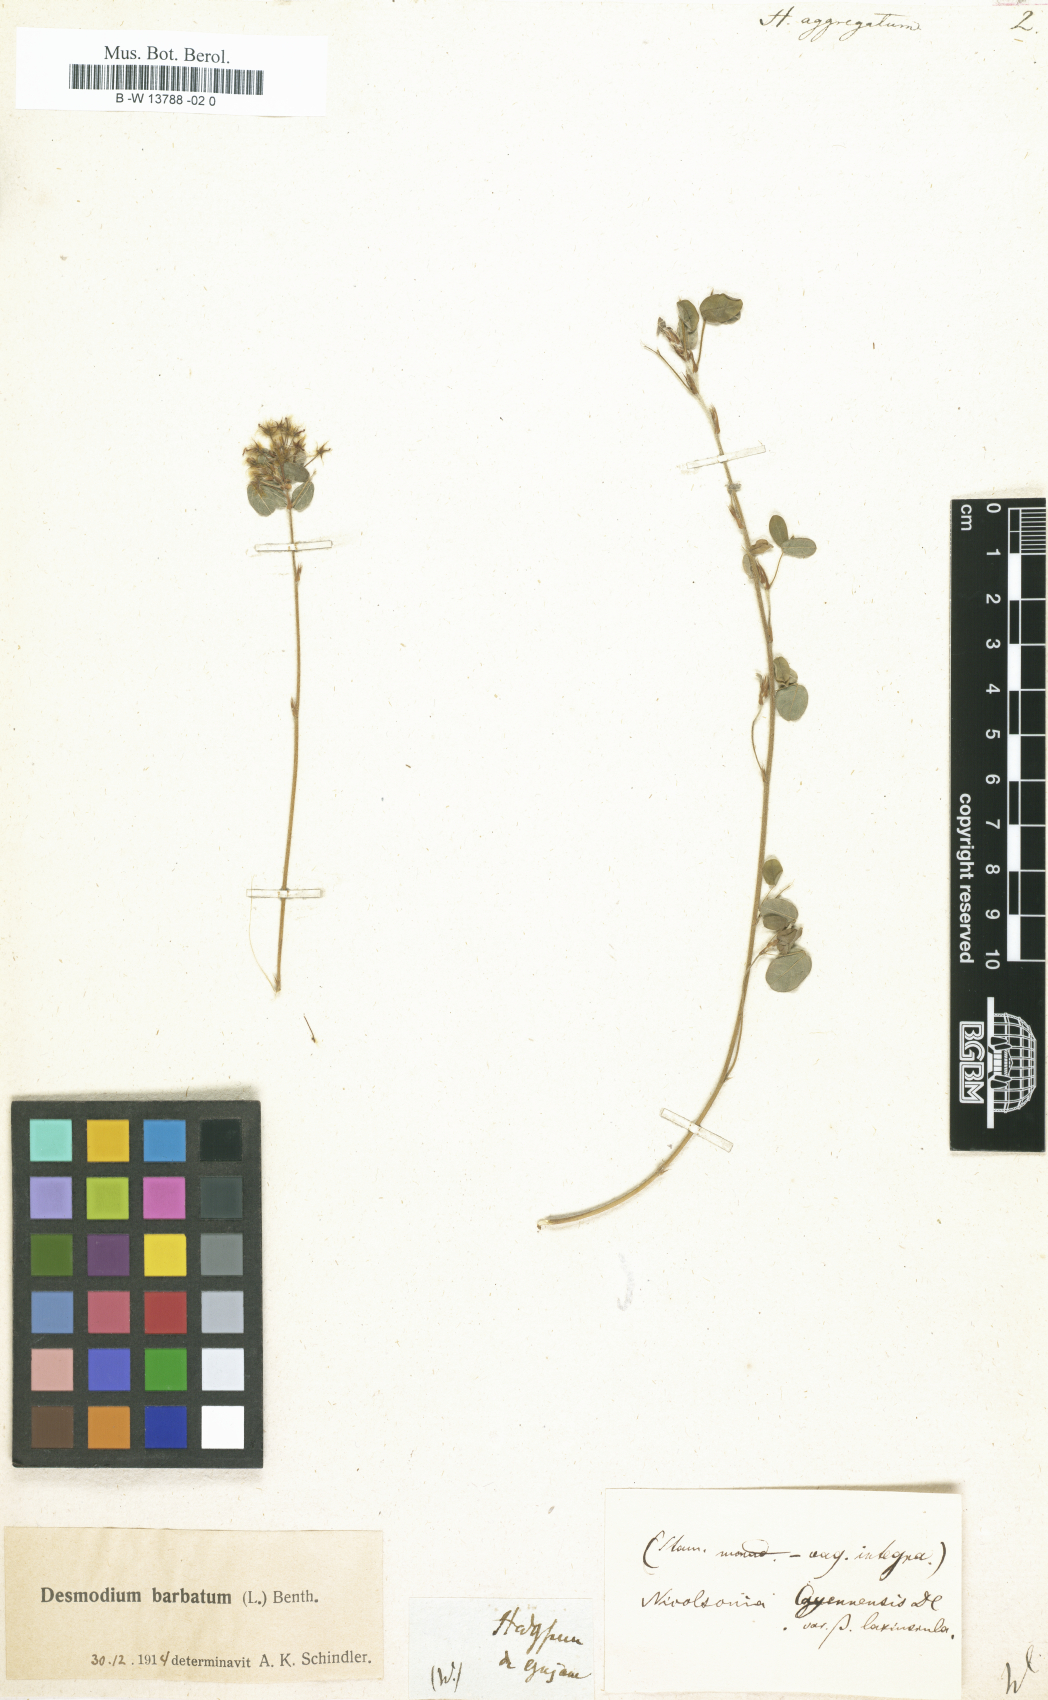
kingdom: Plantae
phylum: Tracheophyta
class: Magnoliopsida
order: Fabales
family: Fabaceae
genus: Hedysarum
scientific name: Hedysarum
